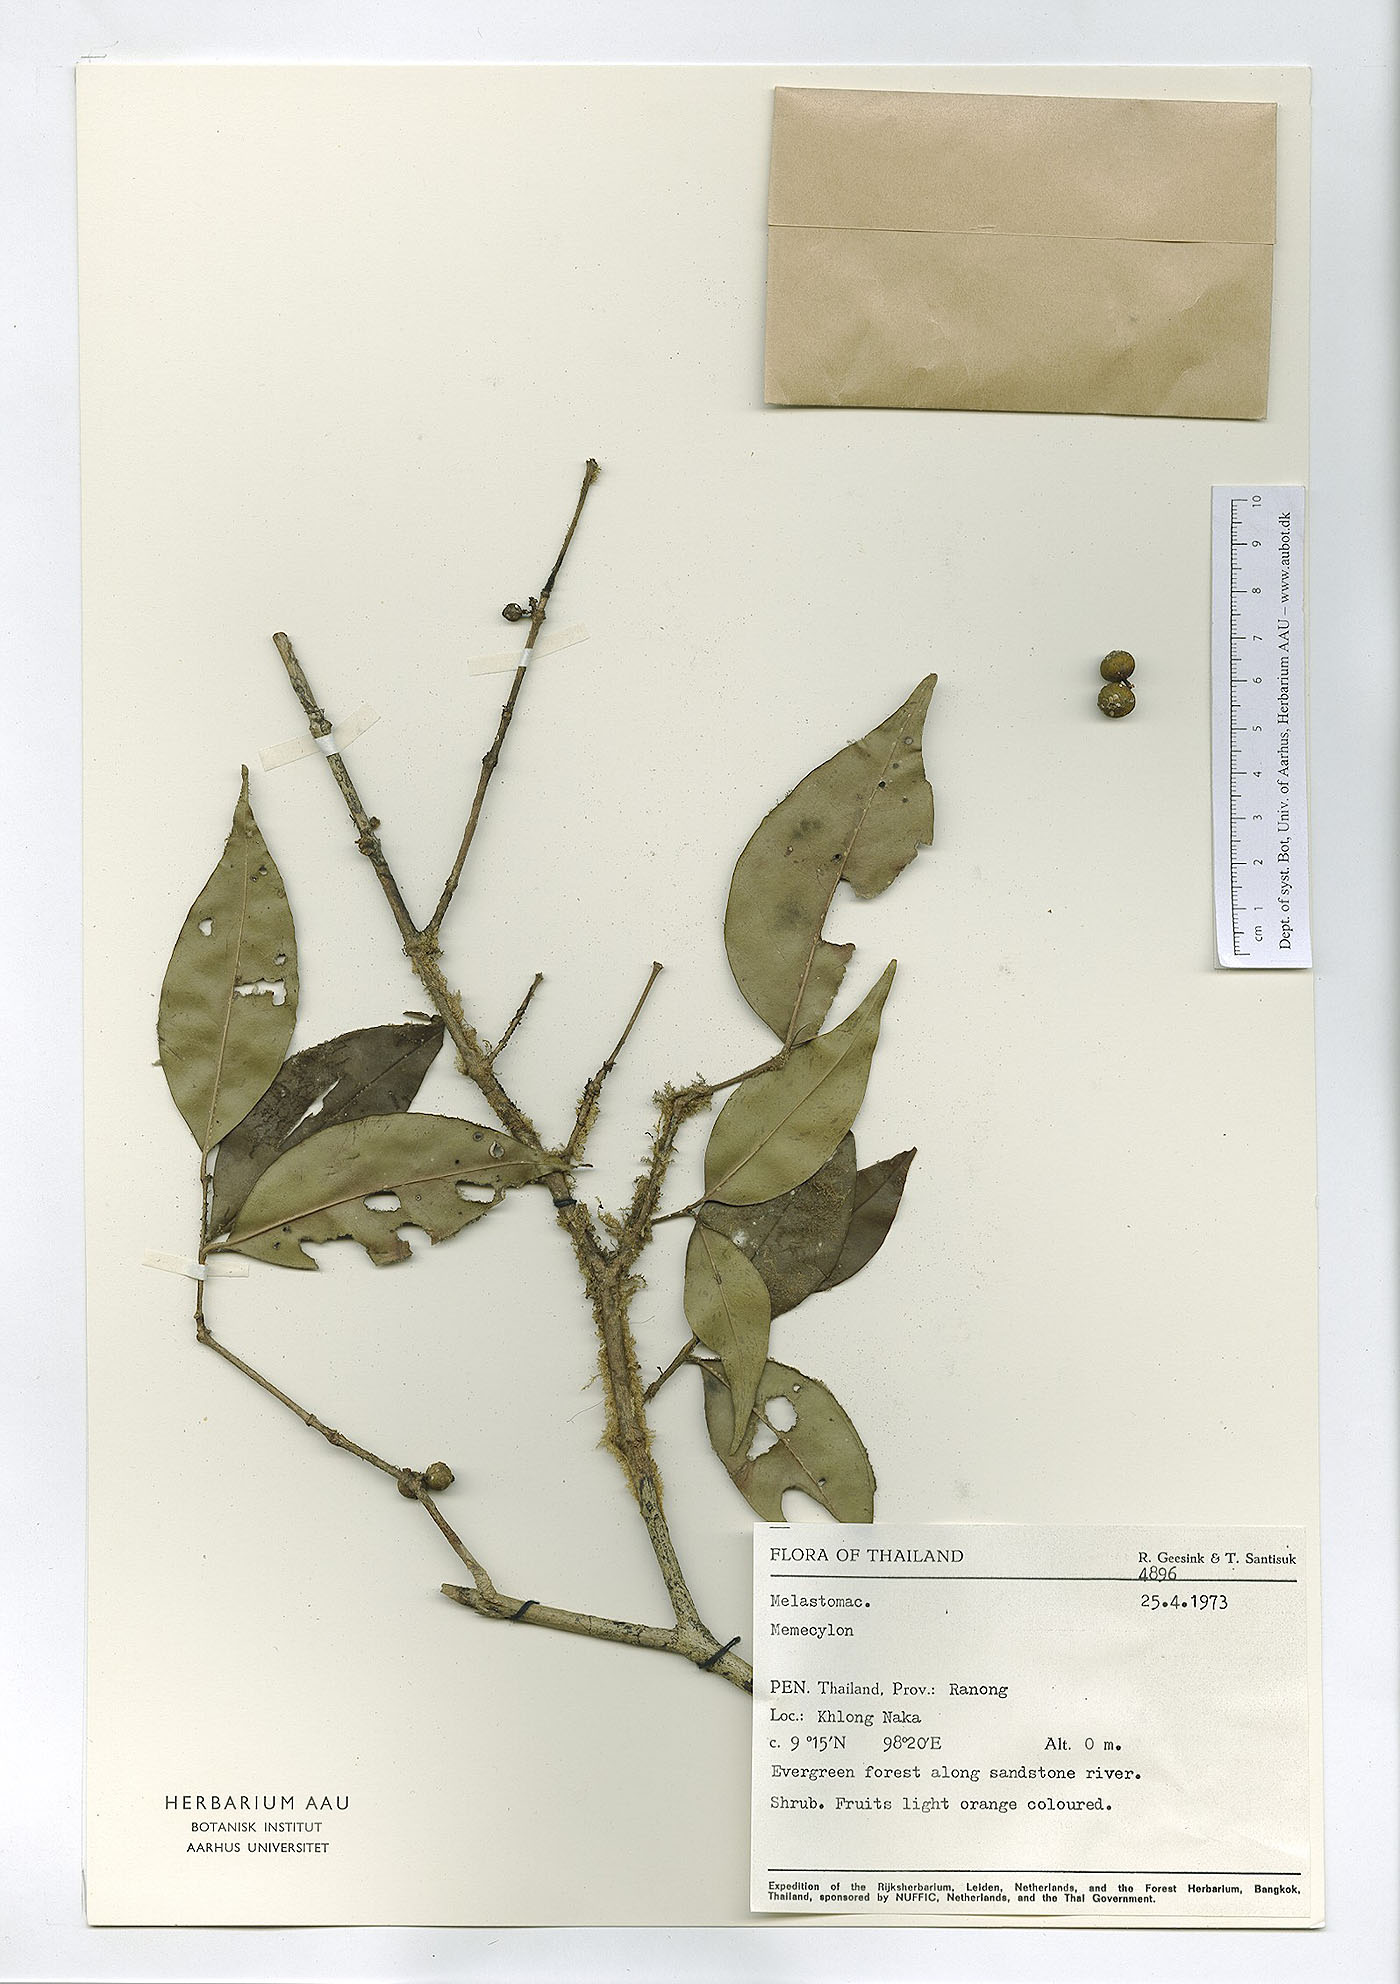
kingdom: Plantae
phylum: Tracheophyta
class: Magnoliopsida
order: Myrtales
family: Melastomataceae
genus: Memecylon
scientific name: Memecylon edule
